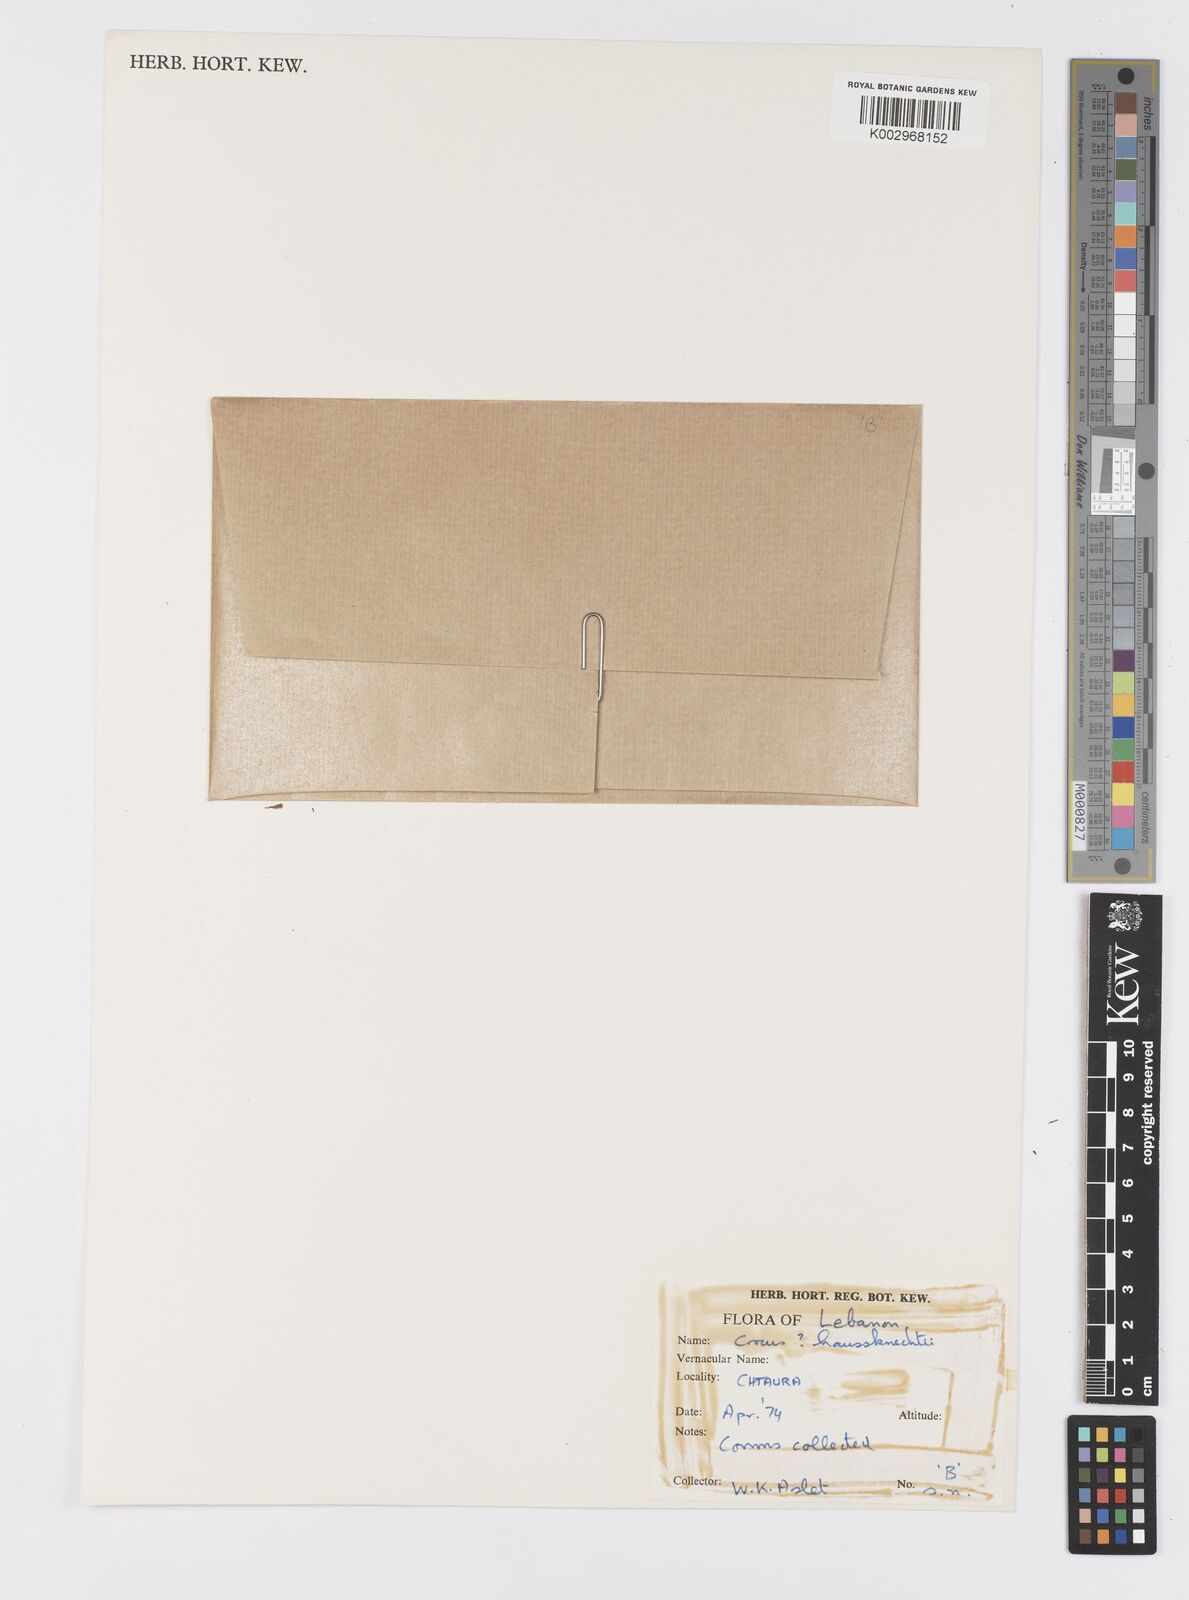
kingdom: Plantae
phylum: Tracheophyta
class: Liliopsida
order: Asparagales
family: Iridaceae
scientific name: Iridaceae
